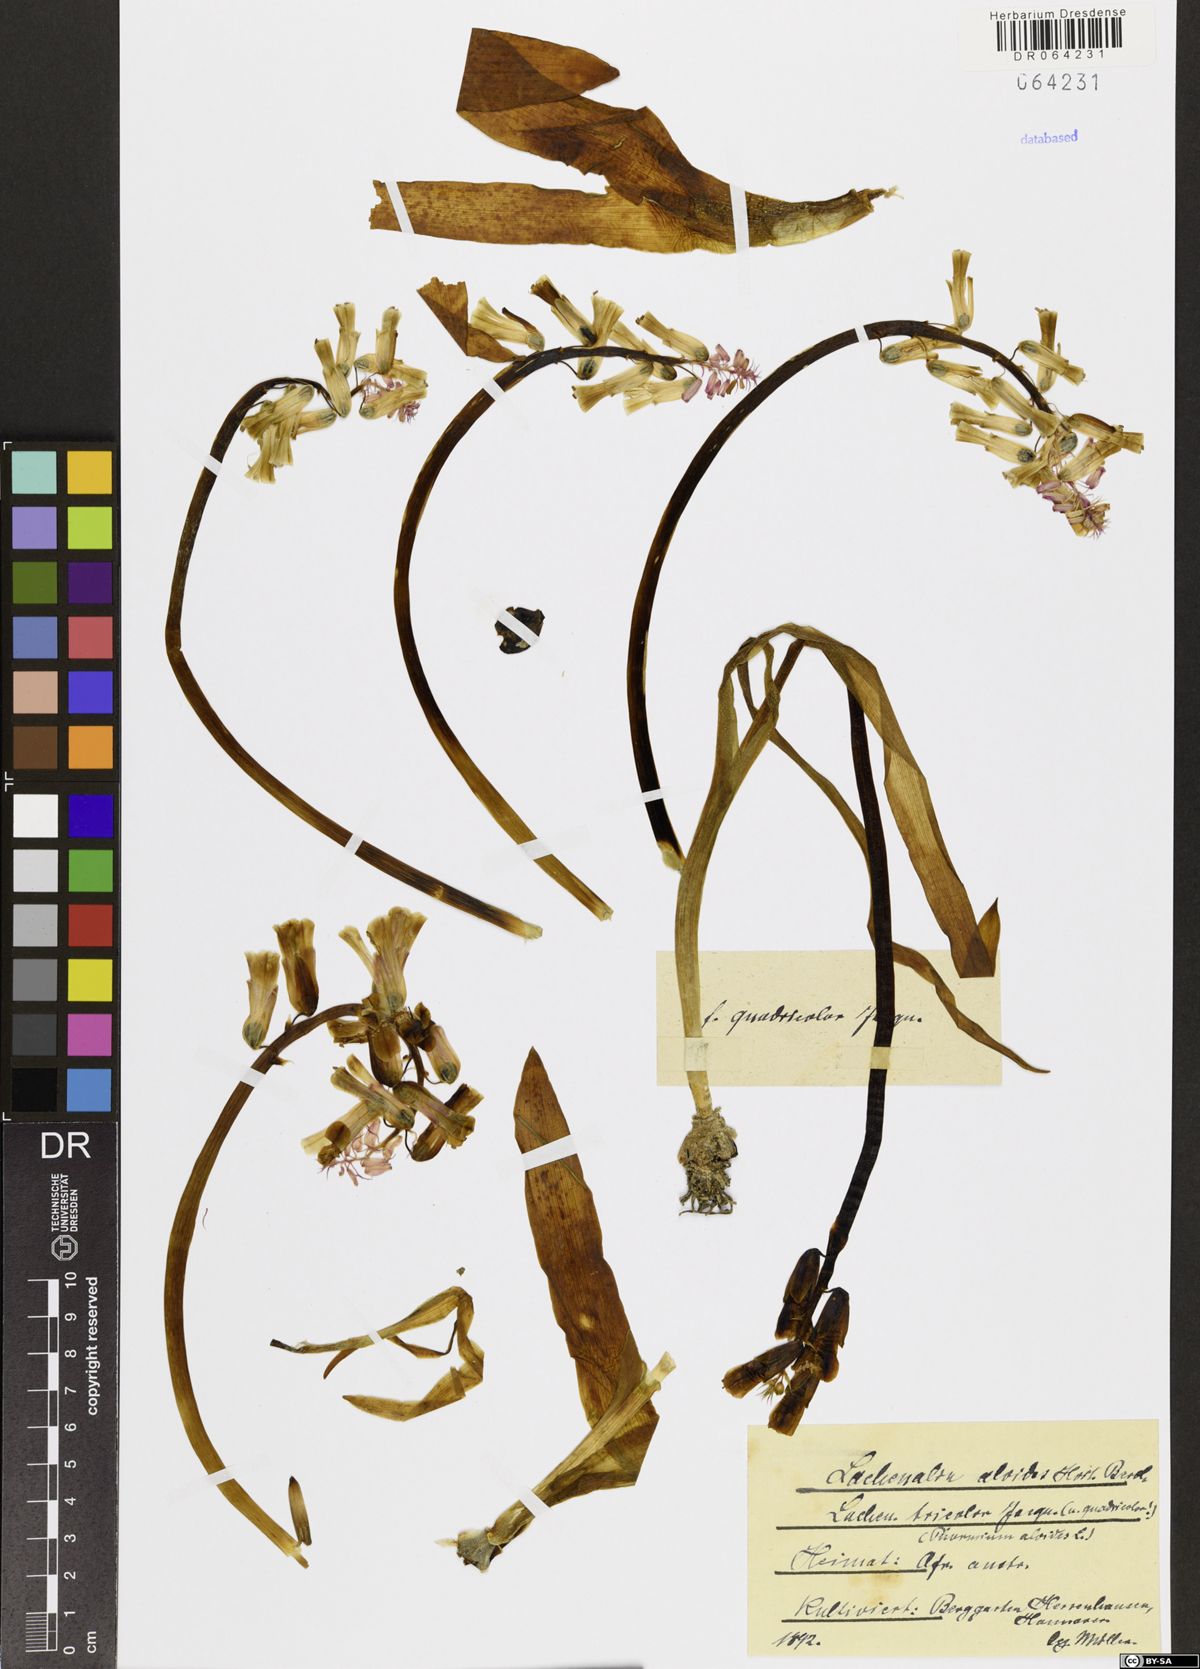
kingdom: Plantae
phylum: Tracheophyta
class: Liliopsida
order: Asparagales
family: Asparagaceae
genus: Lachenalia
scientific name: Lachenalia aloides
